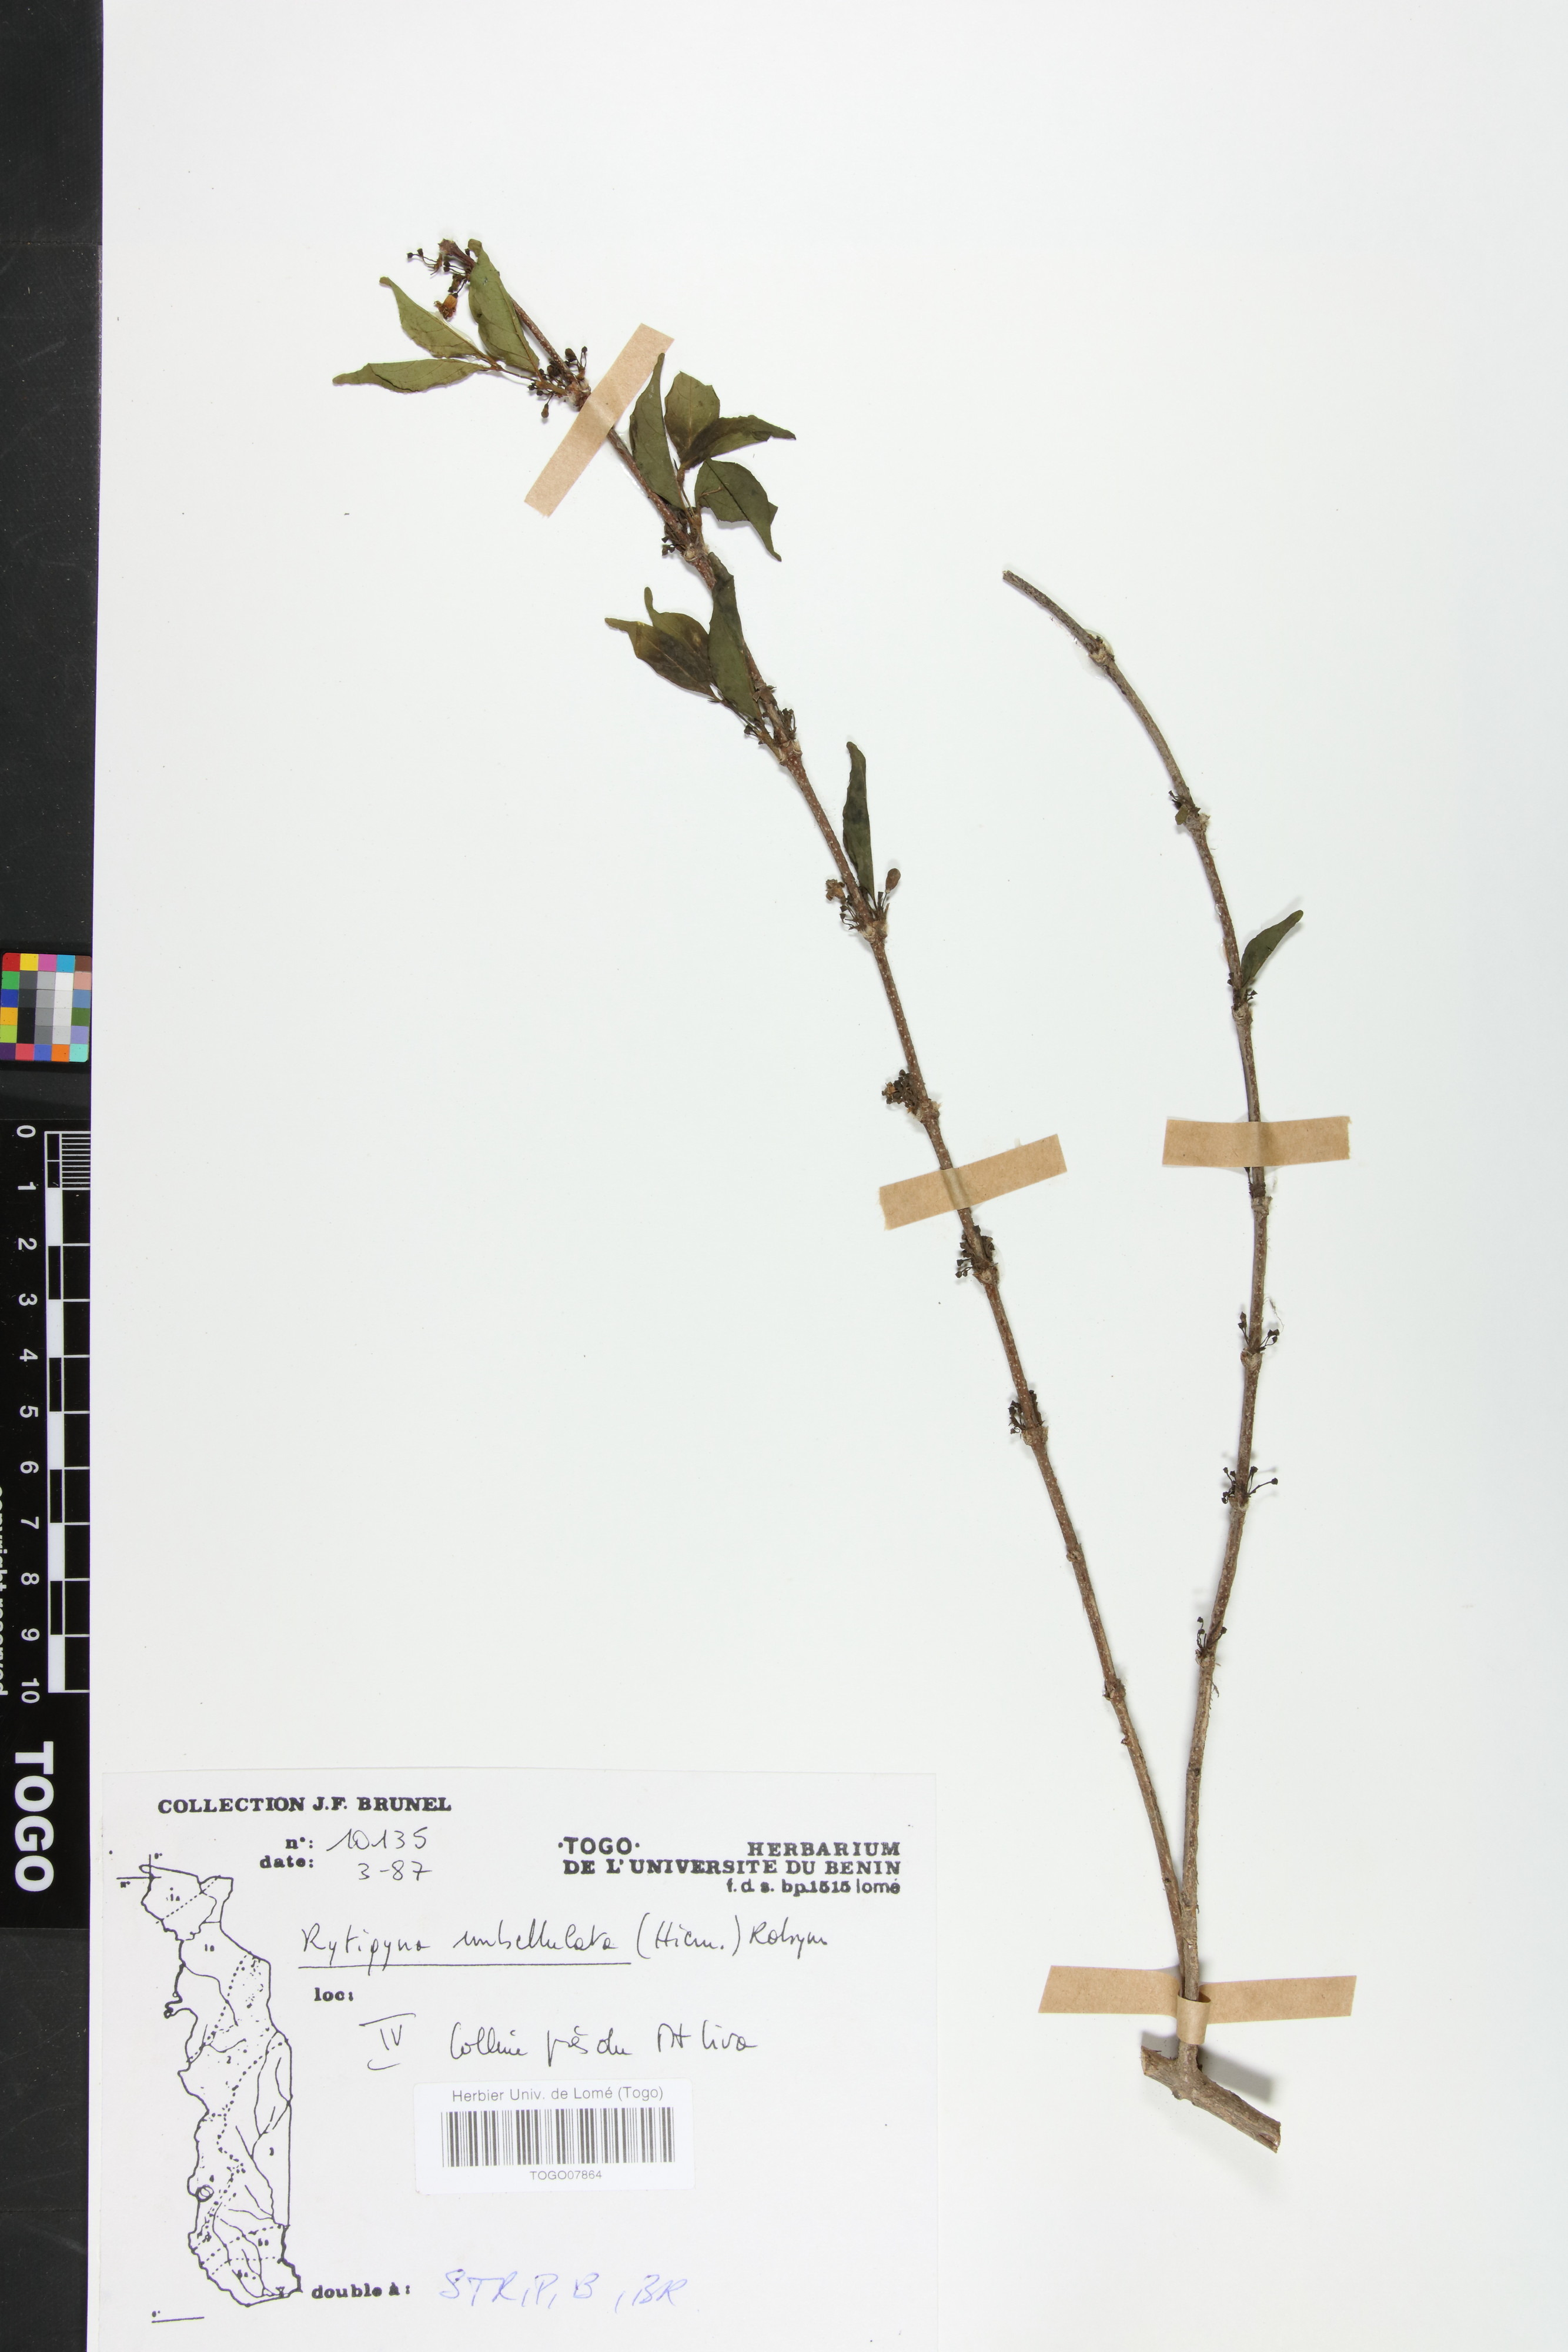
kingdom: Plantae
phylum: Tracheophyta
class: Magnoliopsida
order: Gentianales
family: Rubiaceae
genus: Rytigynia
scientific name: Rytigynia umbellulata
